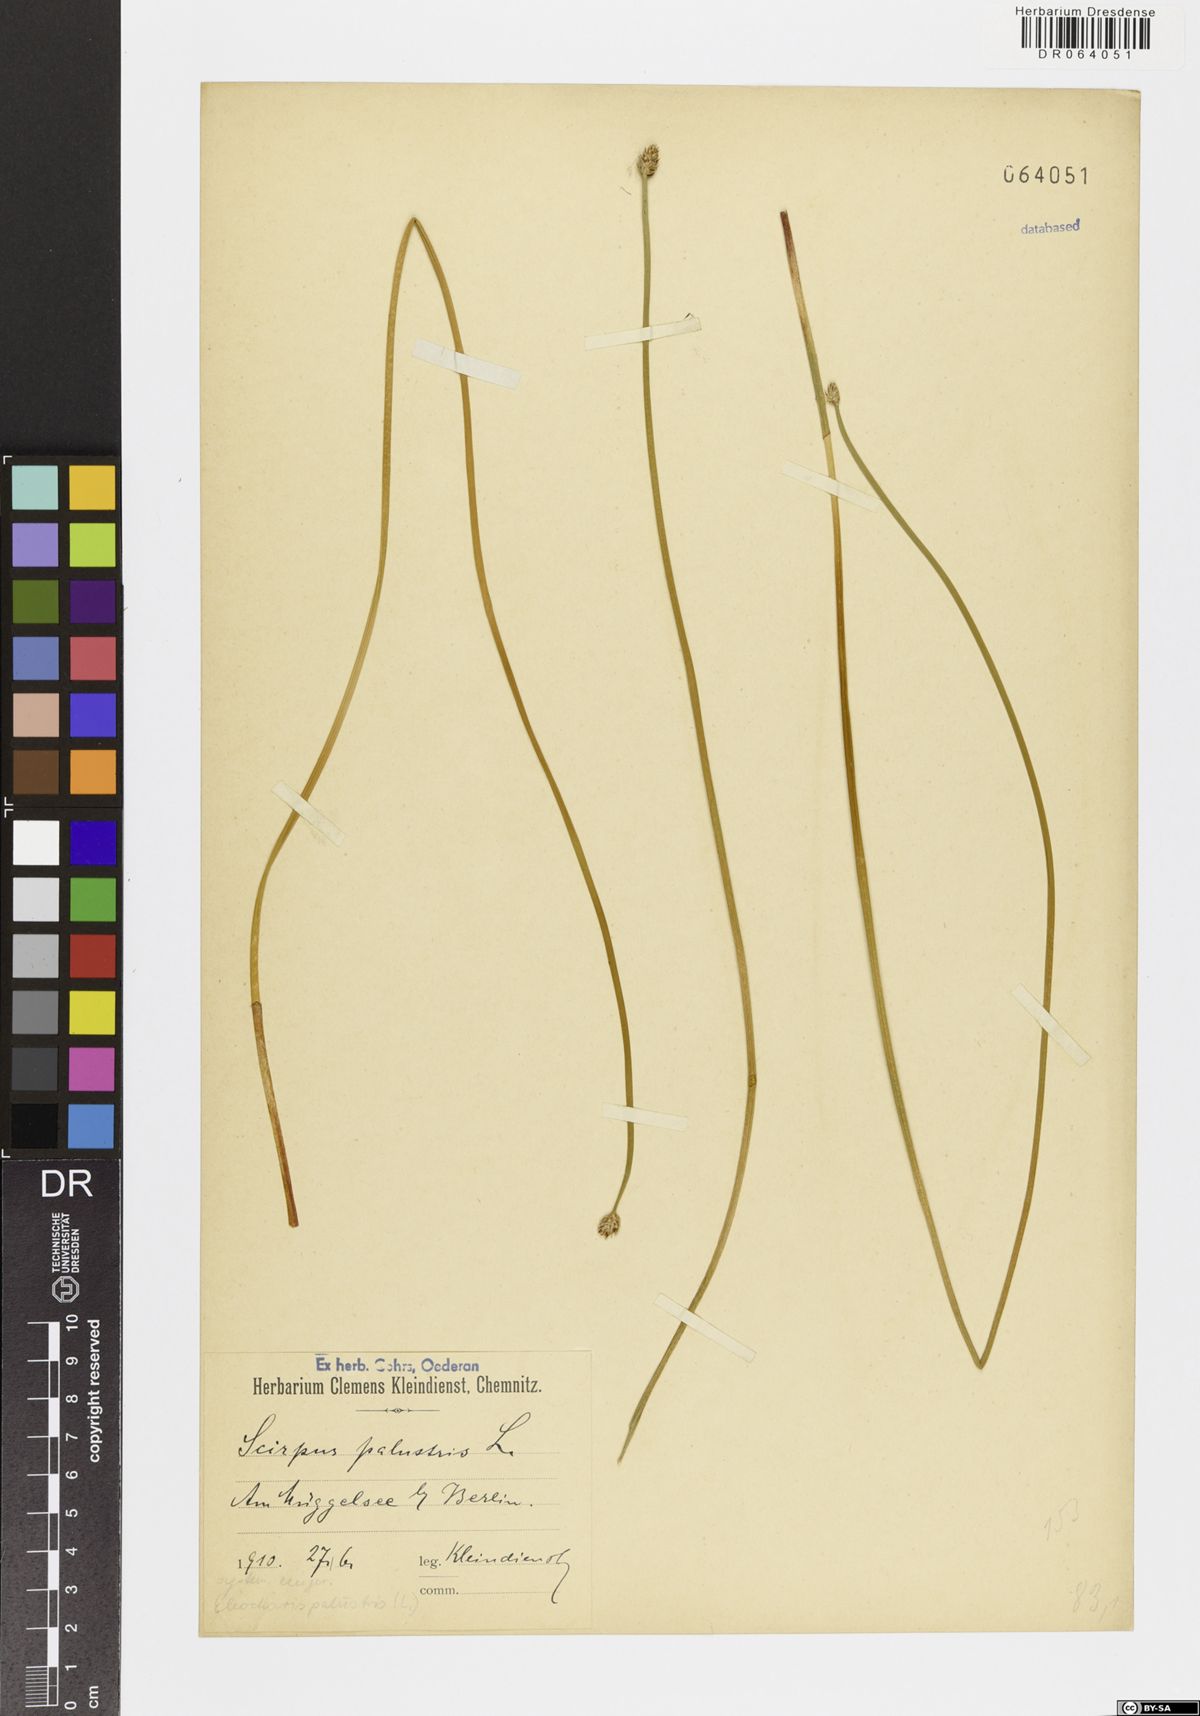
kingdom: Plantae
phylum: Tracheophyta
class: Liliopsida
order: Poales
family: Cyperaceae
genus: Eleocharis
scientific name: Eleocharis palustris
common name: Common spike-rush
